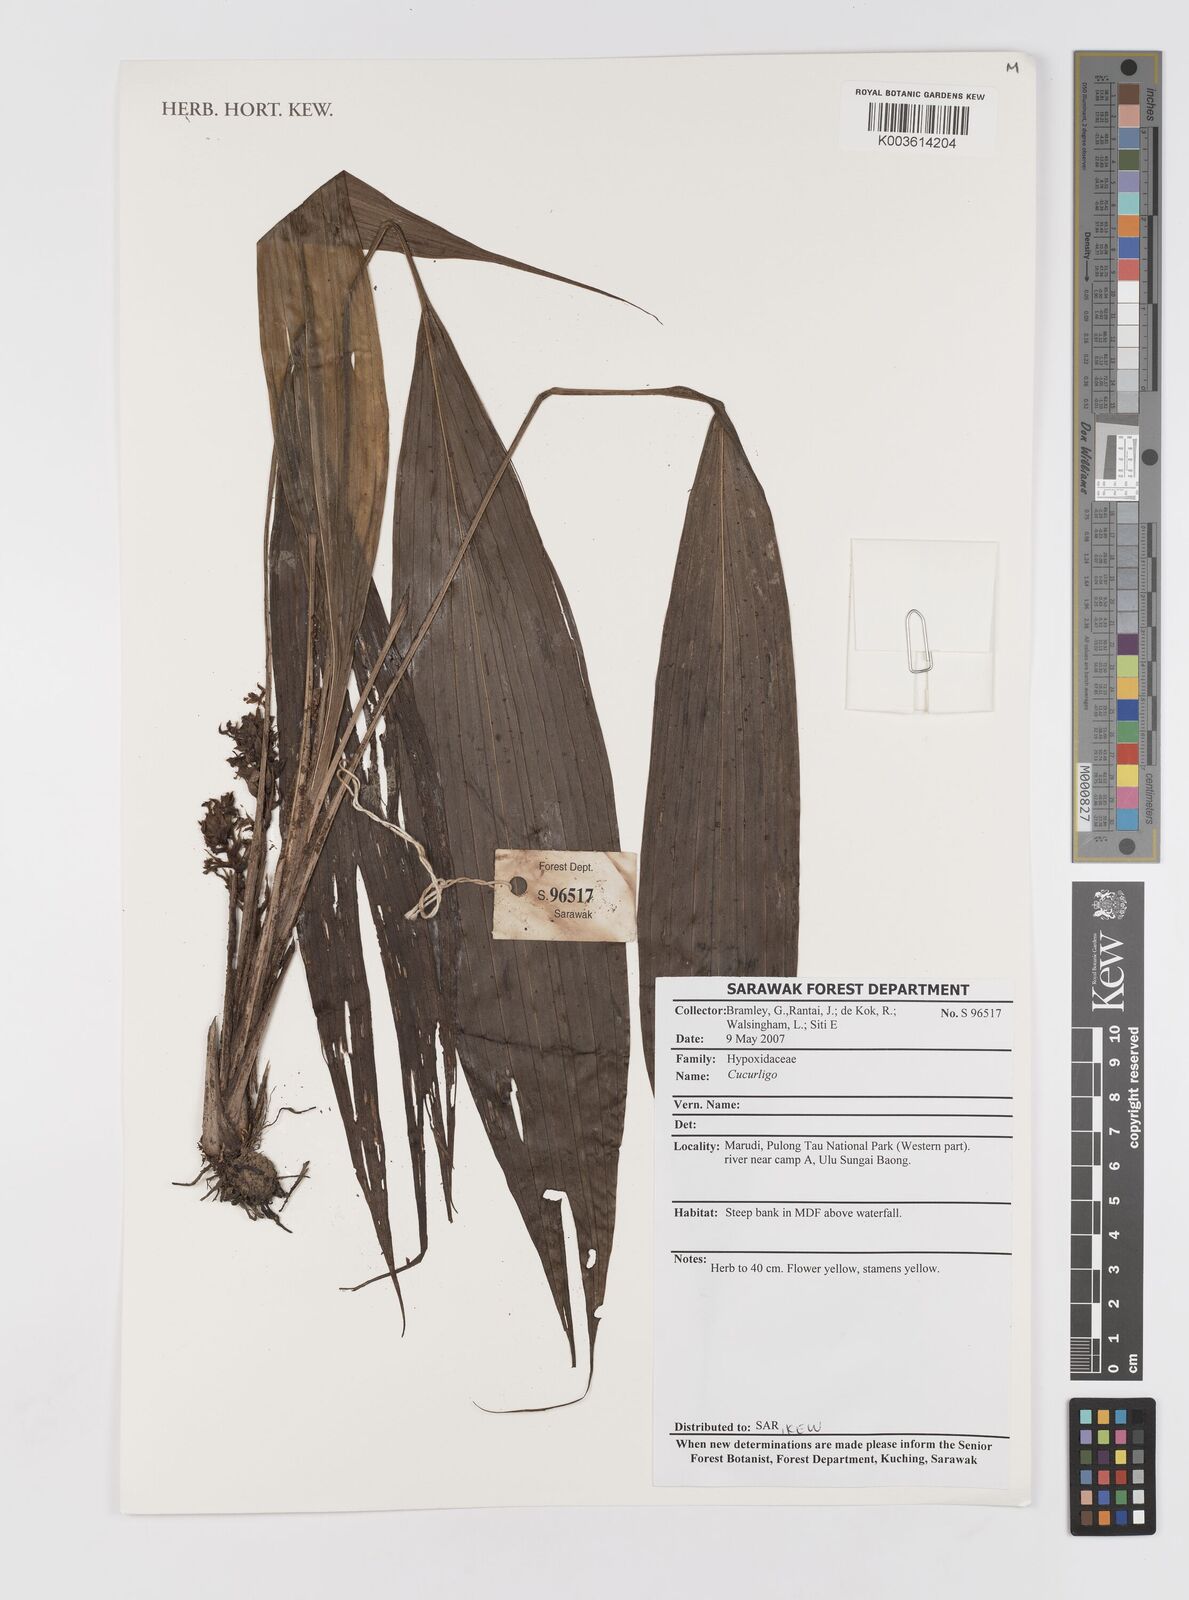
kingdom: Plantae
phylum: Tracheophyta
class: Liliopsida
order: Asparagales
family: Hypoxidaceae
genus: Curculigo
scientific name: Curculigo
